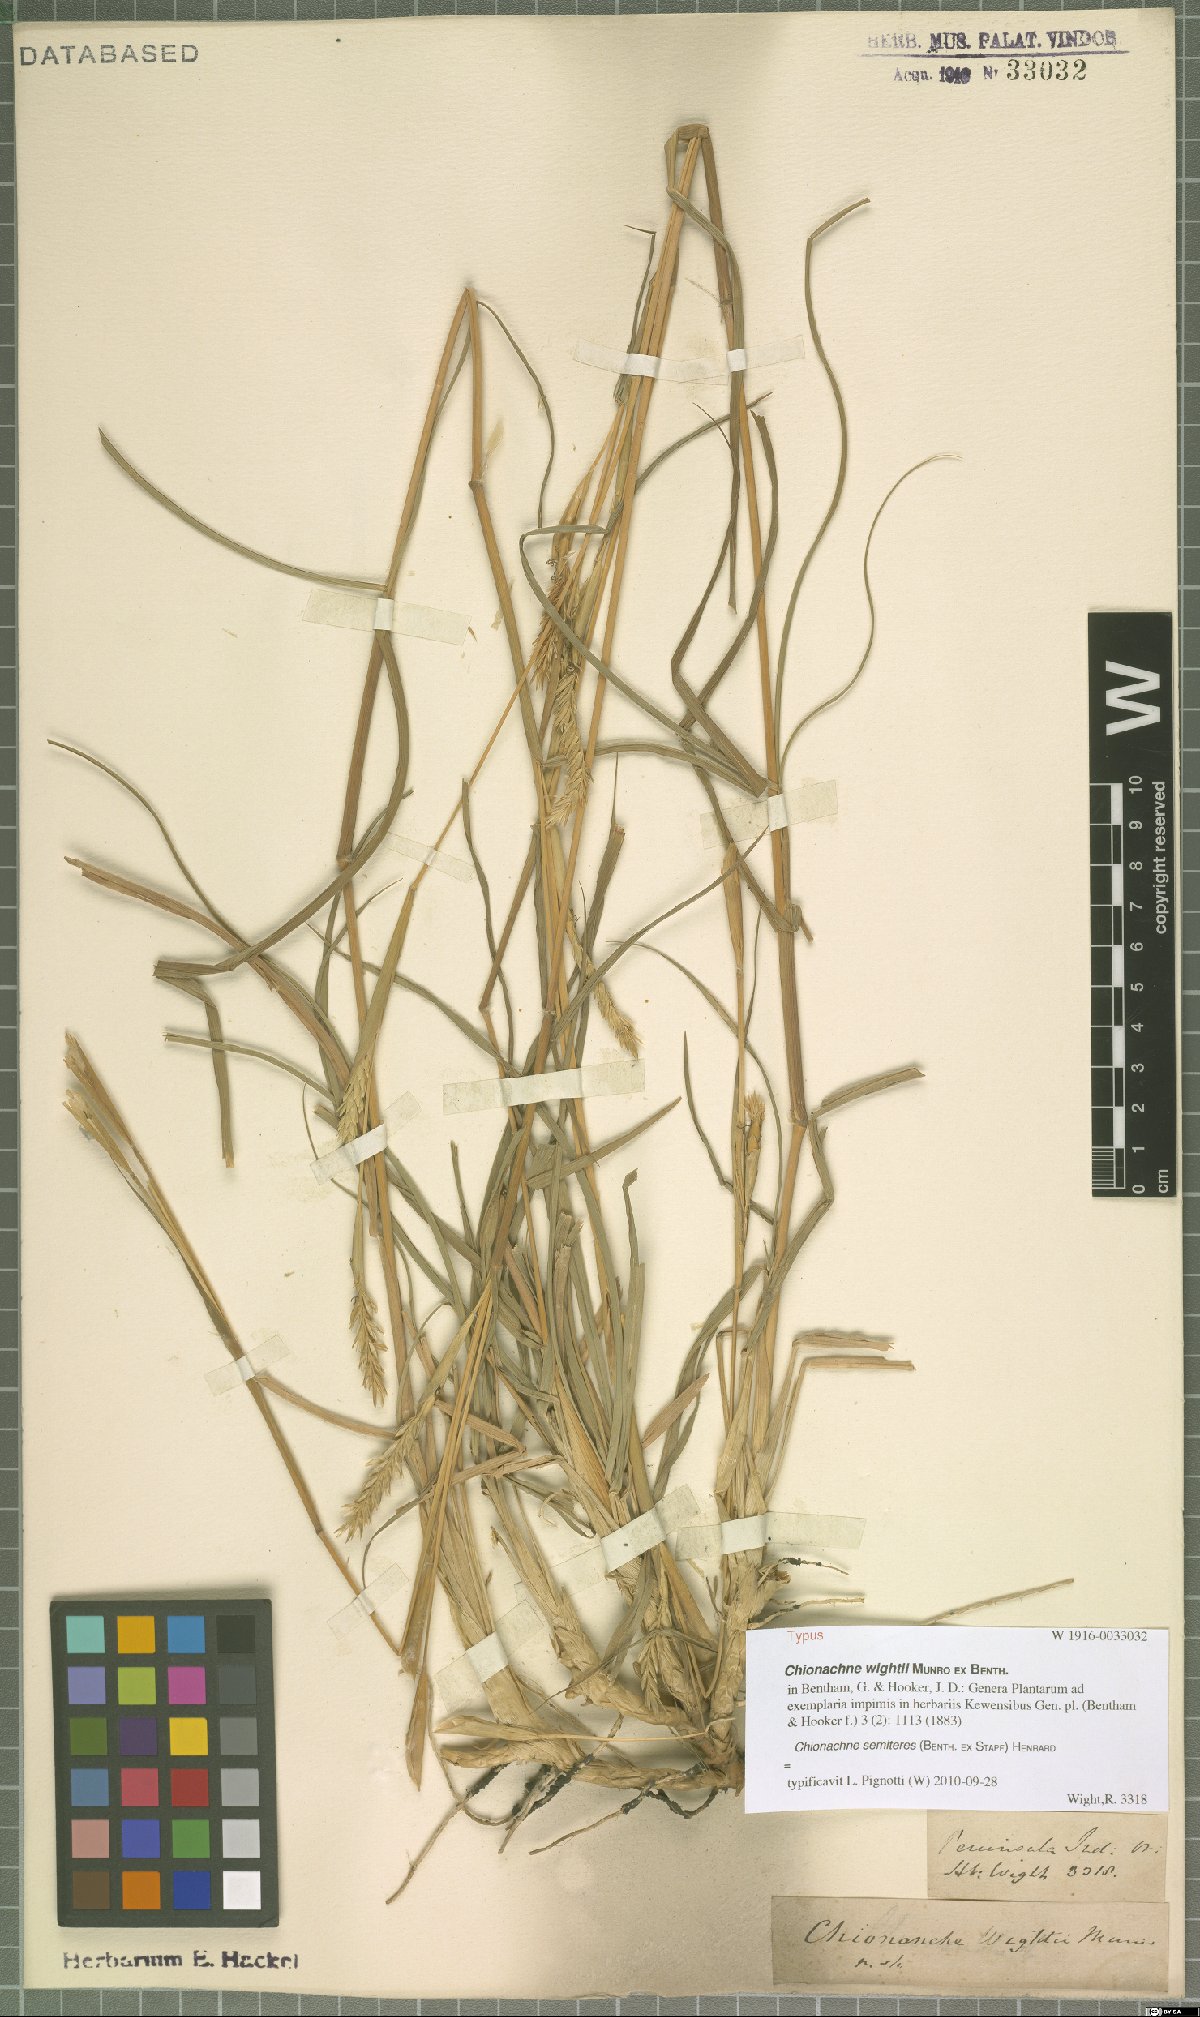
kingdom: Plantae
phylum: Tracheophyta
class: Liliopsida
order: Poales
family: Poaceae
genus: Polytoca
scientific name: Polytoca semiteres
